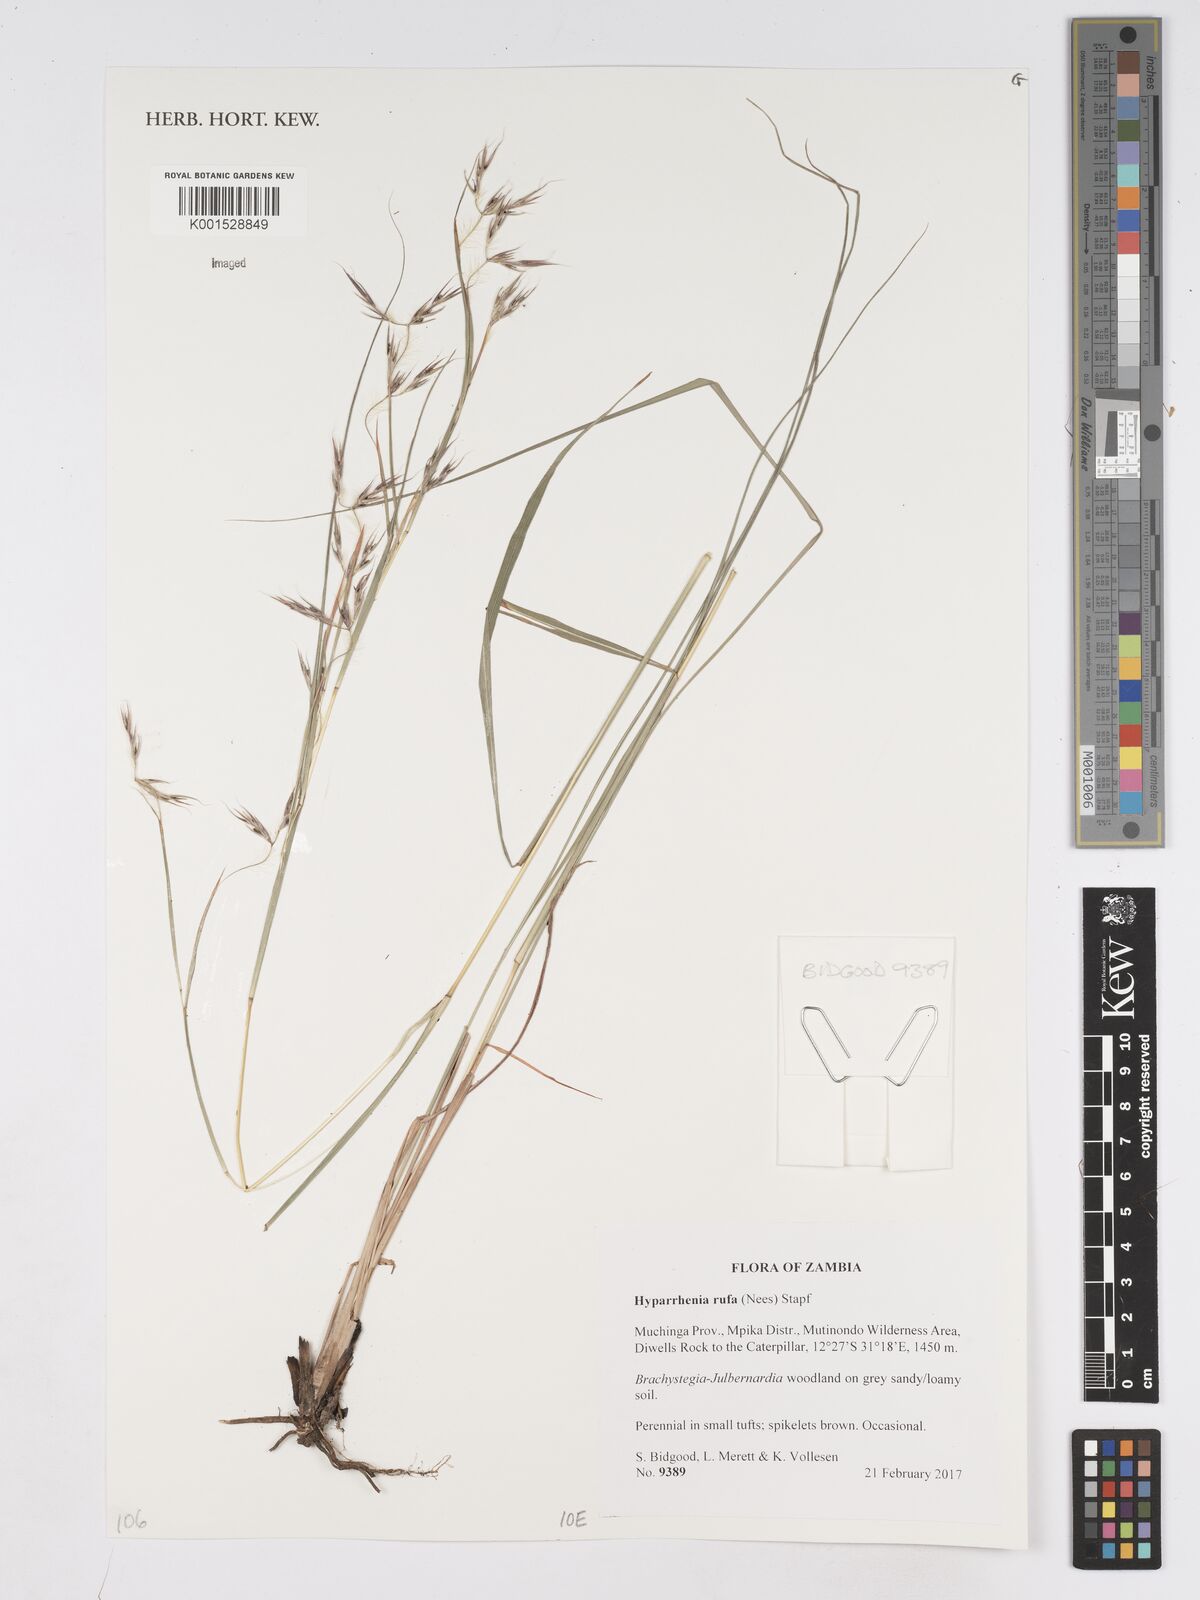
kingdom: Plantae
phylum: Tracheophyta
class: Liliopsida
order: Poales
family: Poaceae
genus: Hyparrhenia
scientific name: Hyparrhenia rufa
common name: Jaraguagrass
